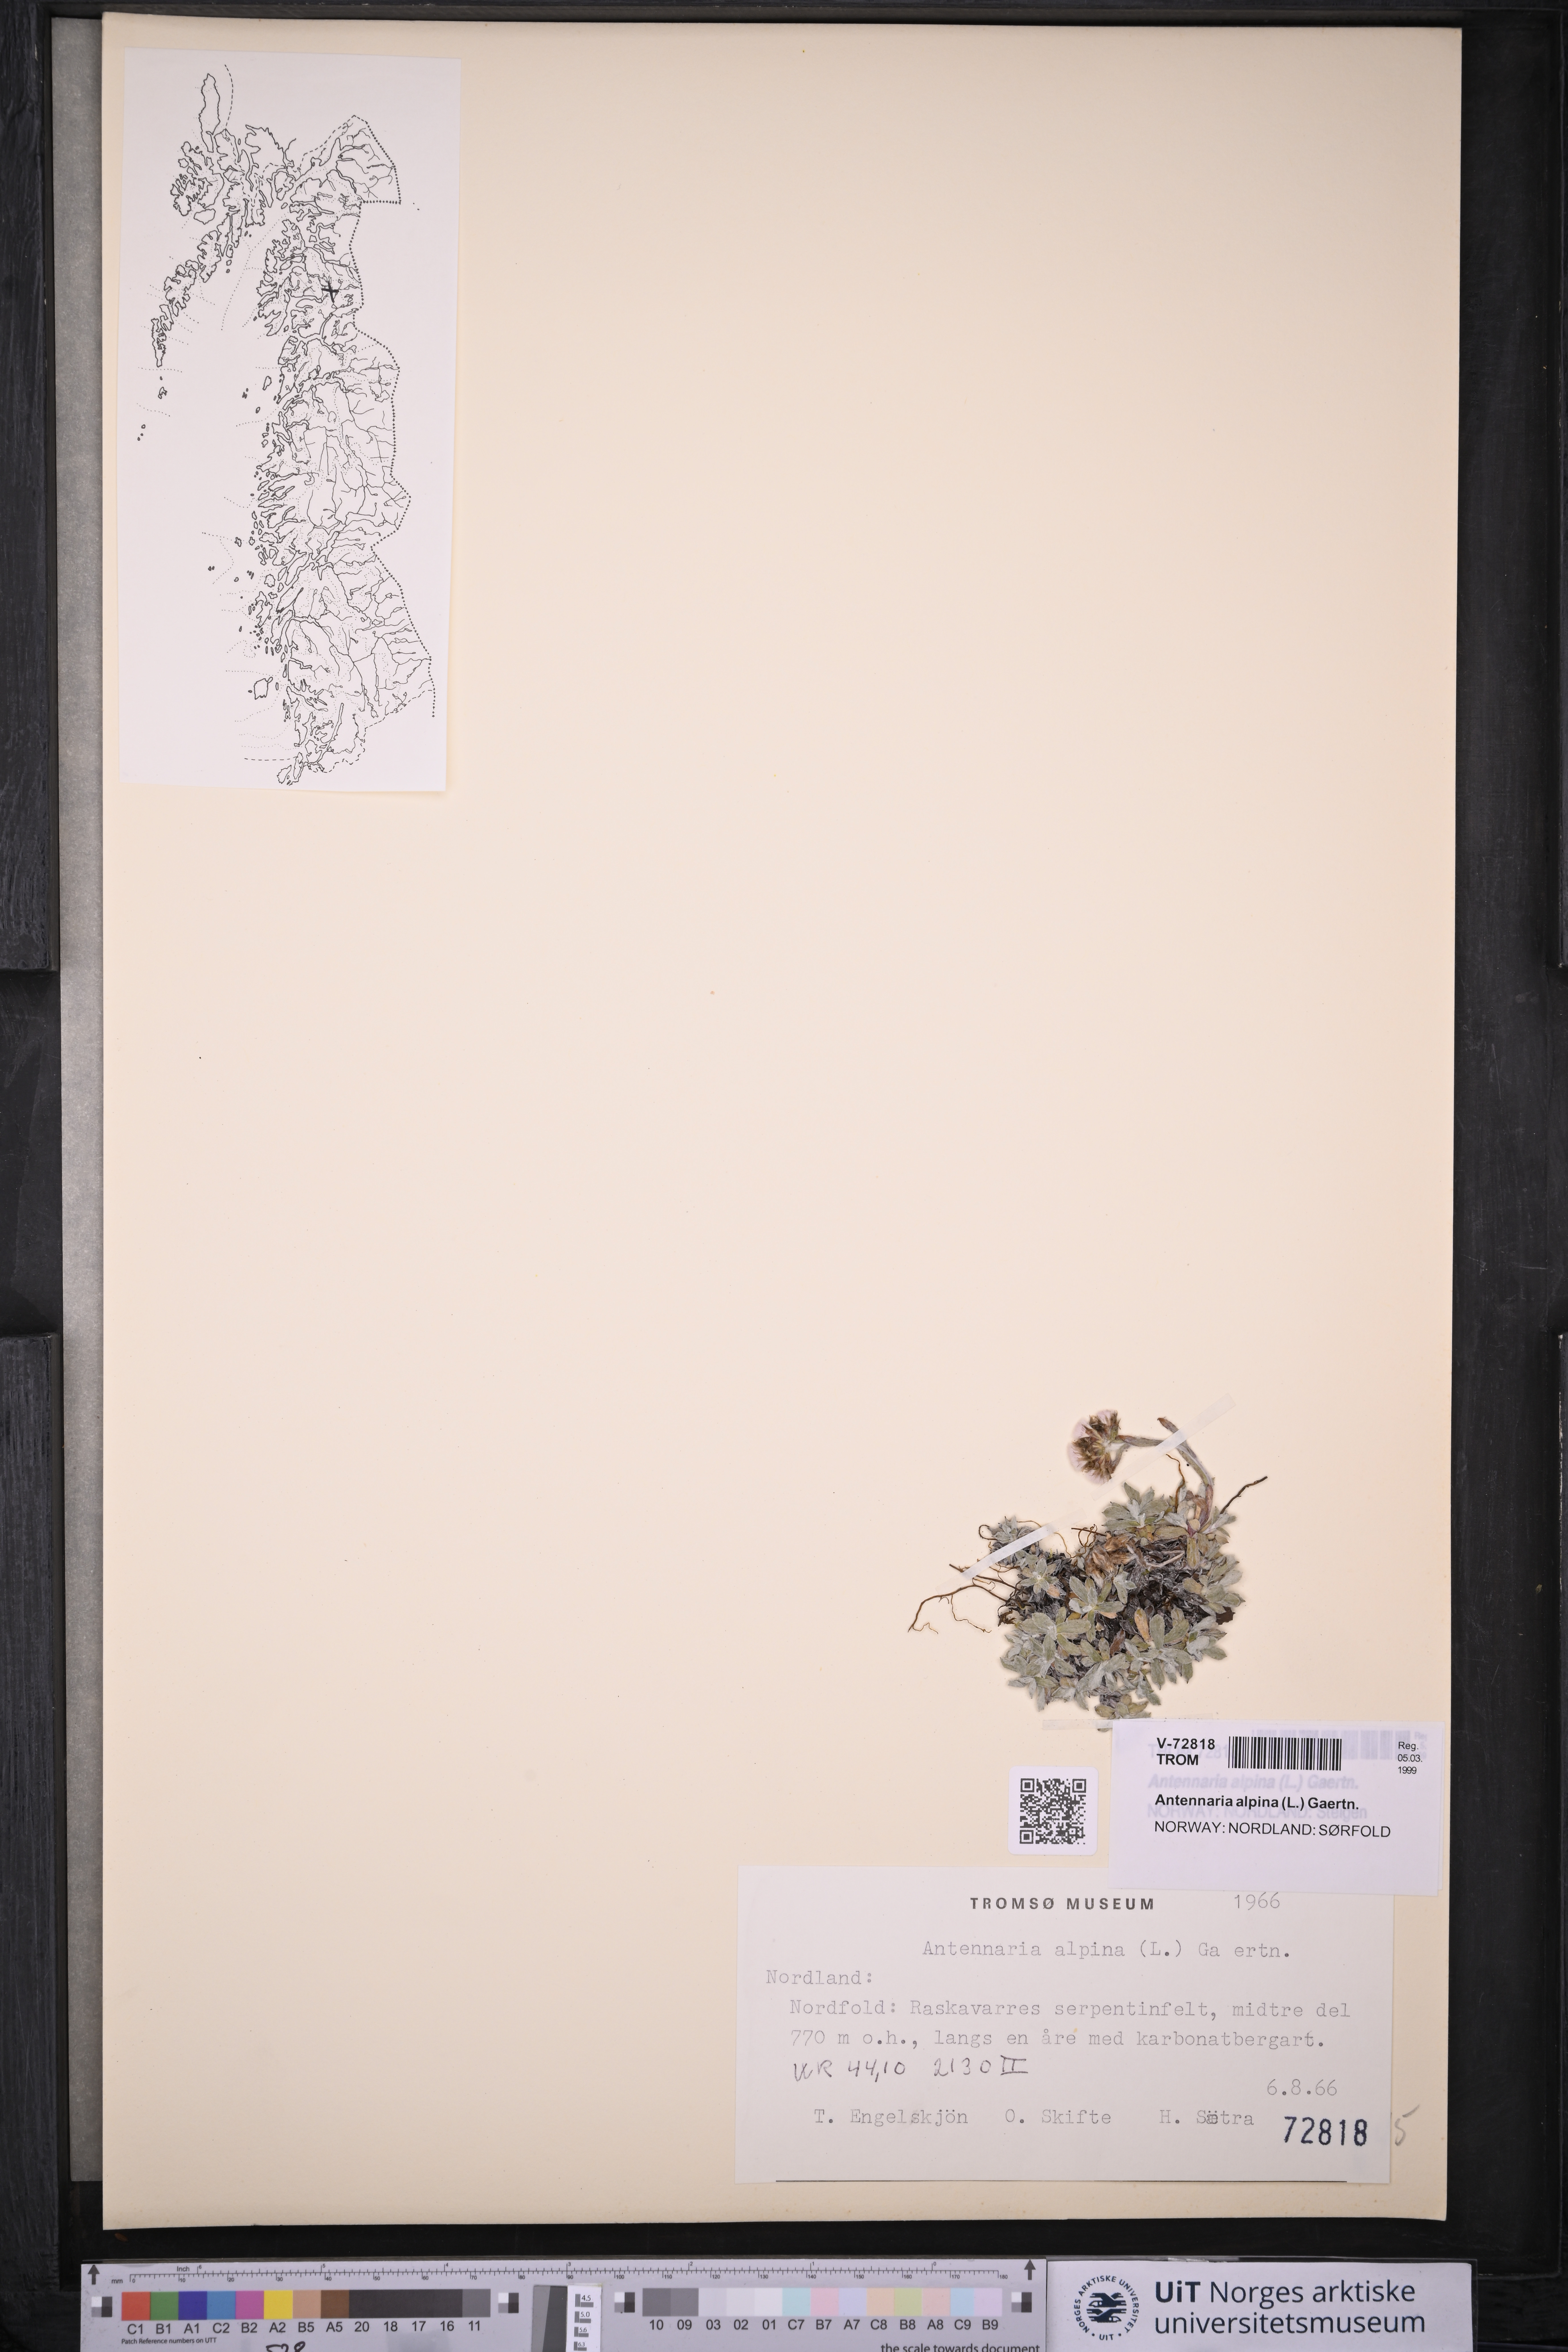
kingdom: Plantae
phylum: Tracheophyta
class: Magnoliopsida
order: Asterales
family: Asteraceae
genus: Antennaria
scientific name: Antennaria alpina
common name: Alpine pussytoes
